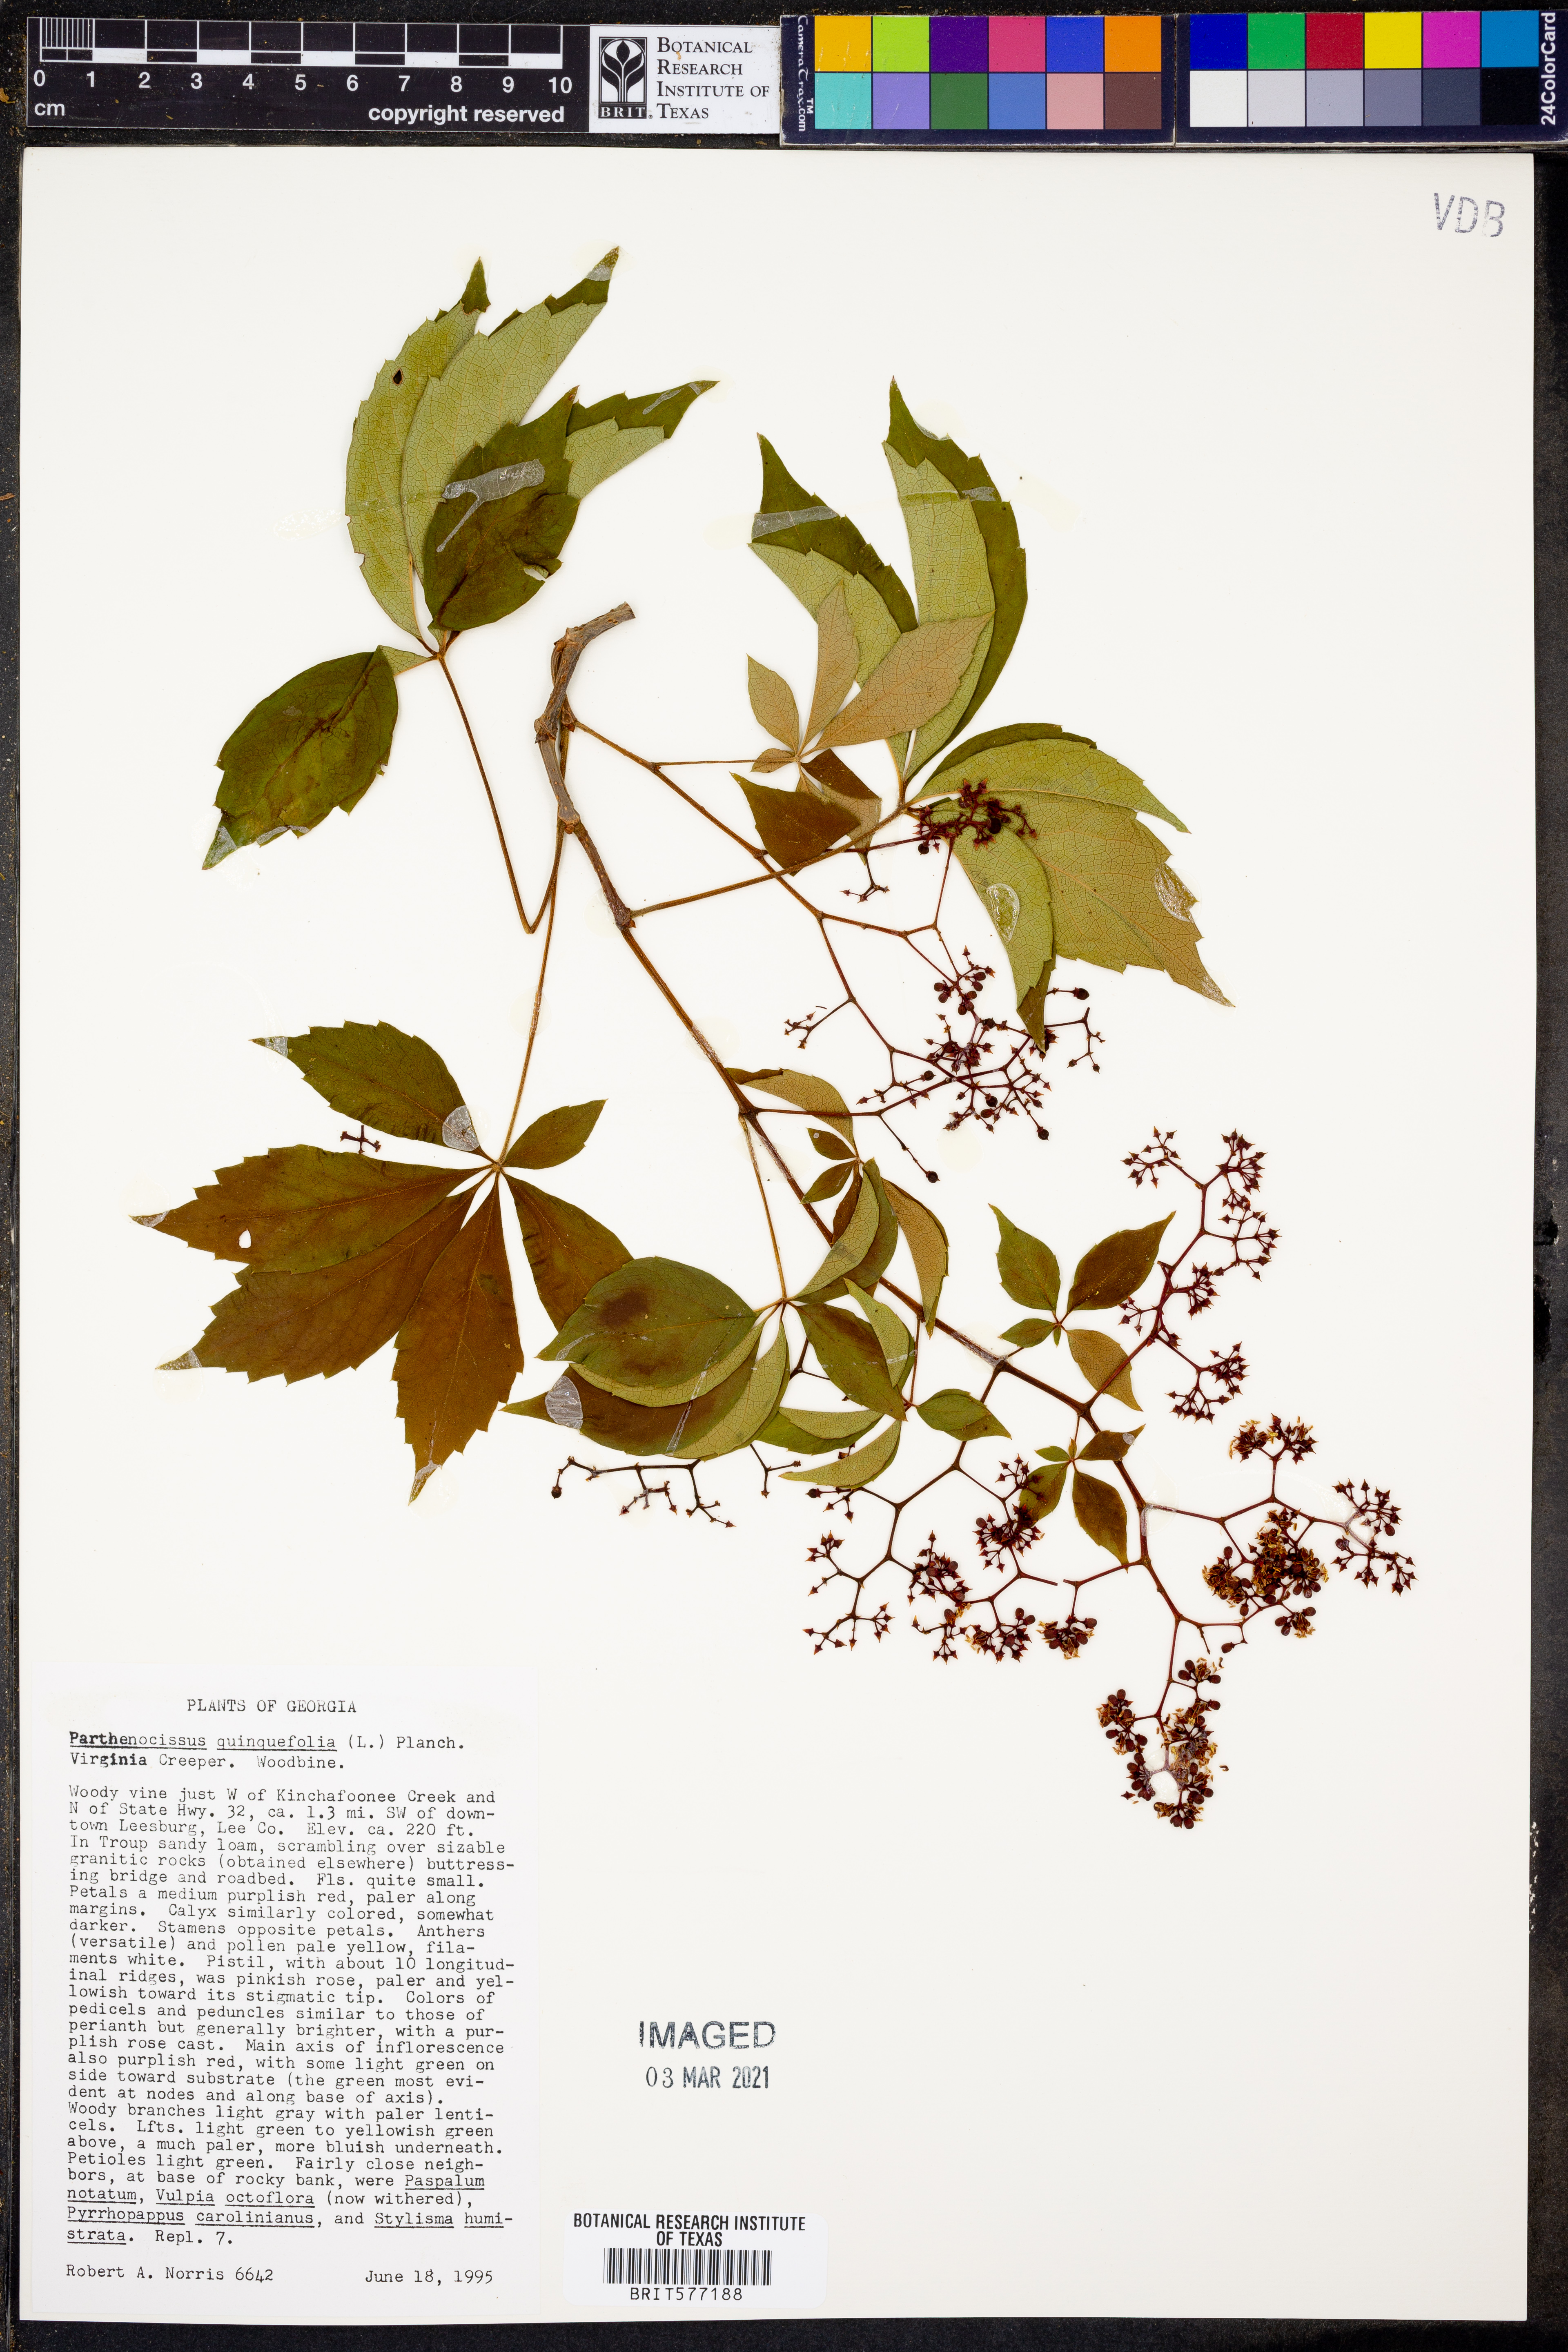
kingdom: Plantae
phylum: Tracheophyta
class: Magnoliopsida
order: Vitales
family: Vitaceae
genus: Parthenocissus
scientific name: Parthenocissus quinquefolia
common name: Virginia-creeper
